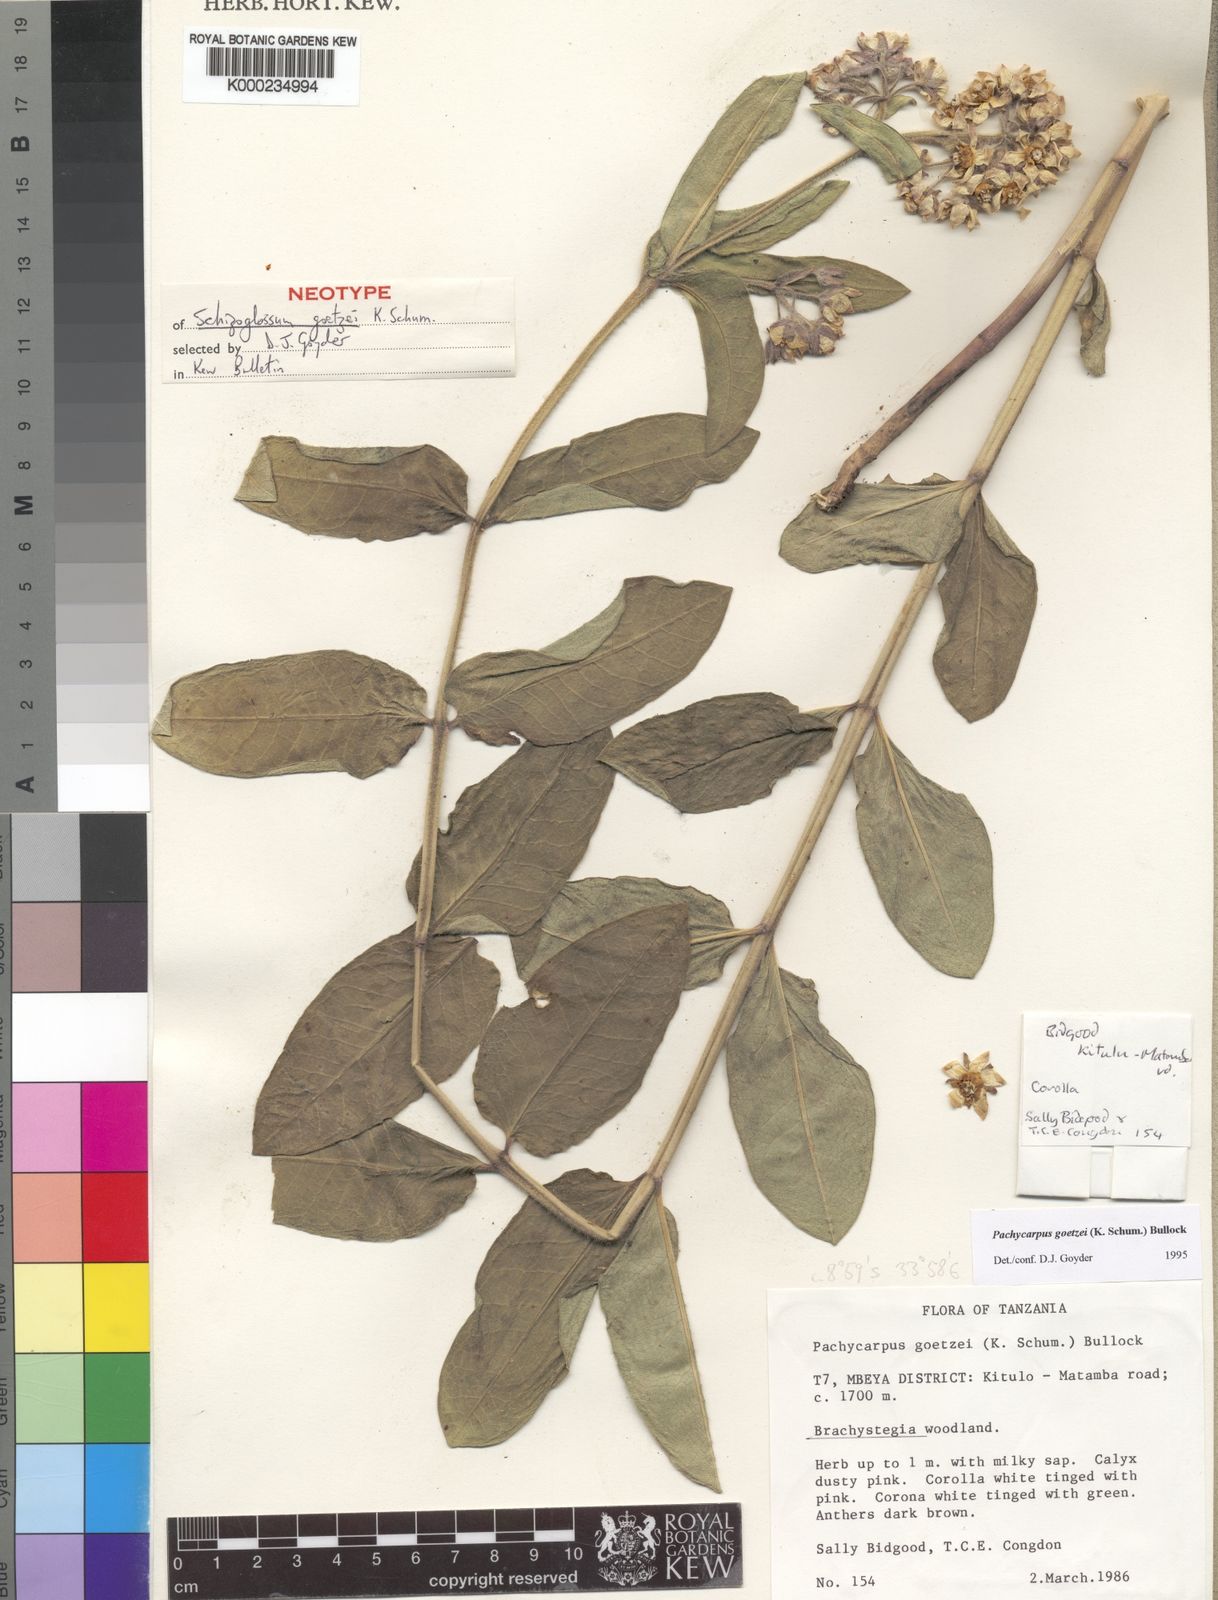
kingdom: Plantae
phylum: Tracheophyta
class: Magnoliopsida
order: Gentianales
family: Apocynaceae
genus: Pachycarpus
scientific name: Pachycarpus goetzei
